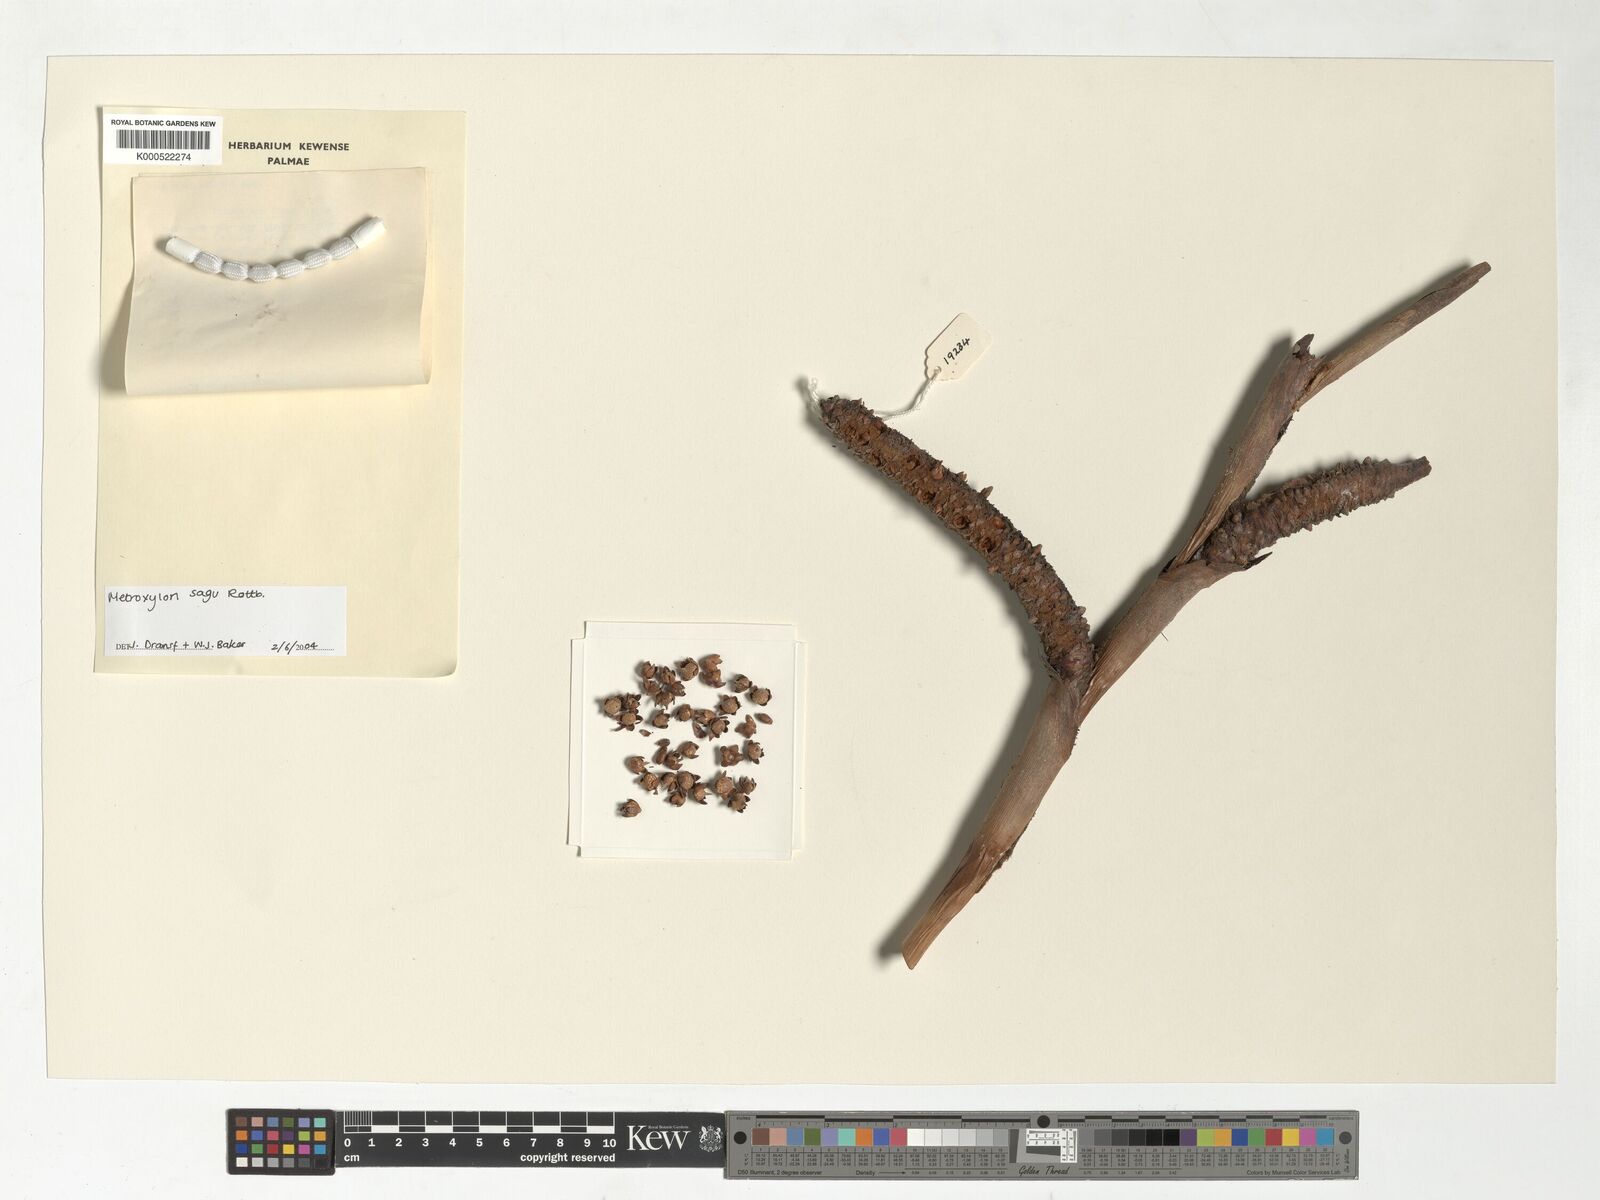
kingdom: Plantae
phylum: Tracheophyta
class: Liliopsida
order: Arecales
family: Arecaceae
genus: Metroxylon
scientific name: Metroxylon sagu
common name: Sago palm
